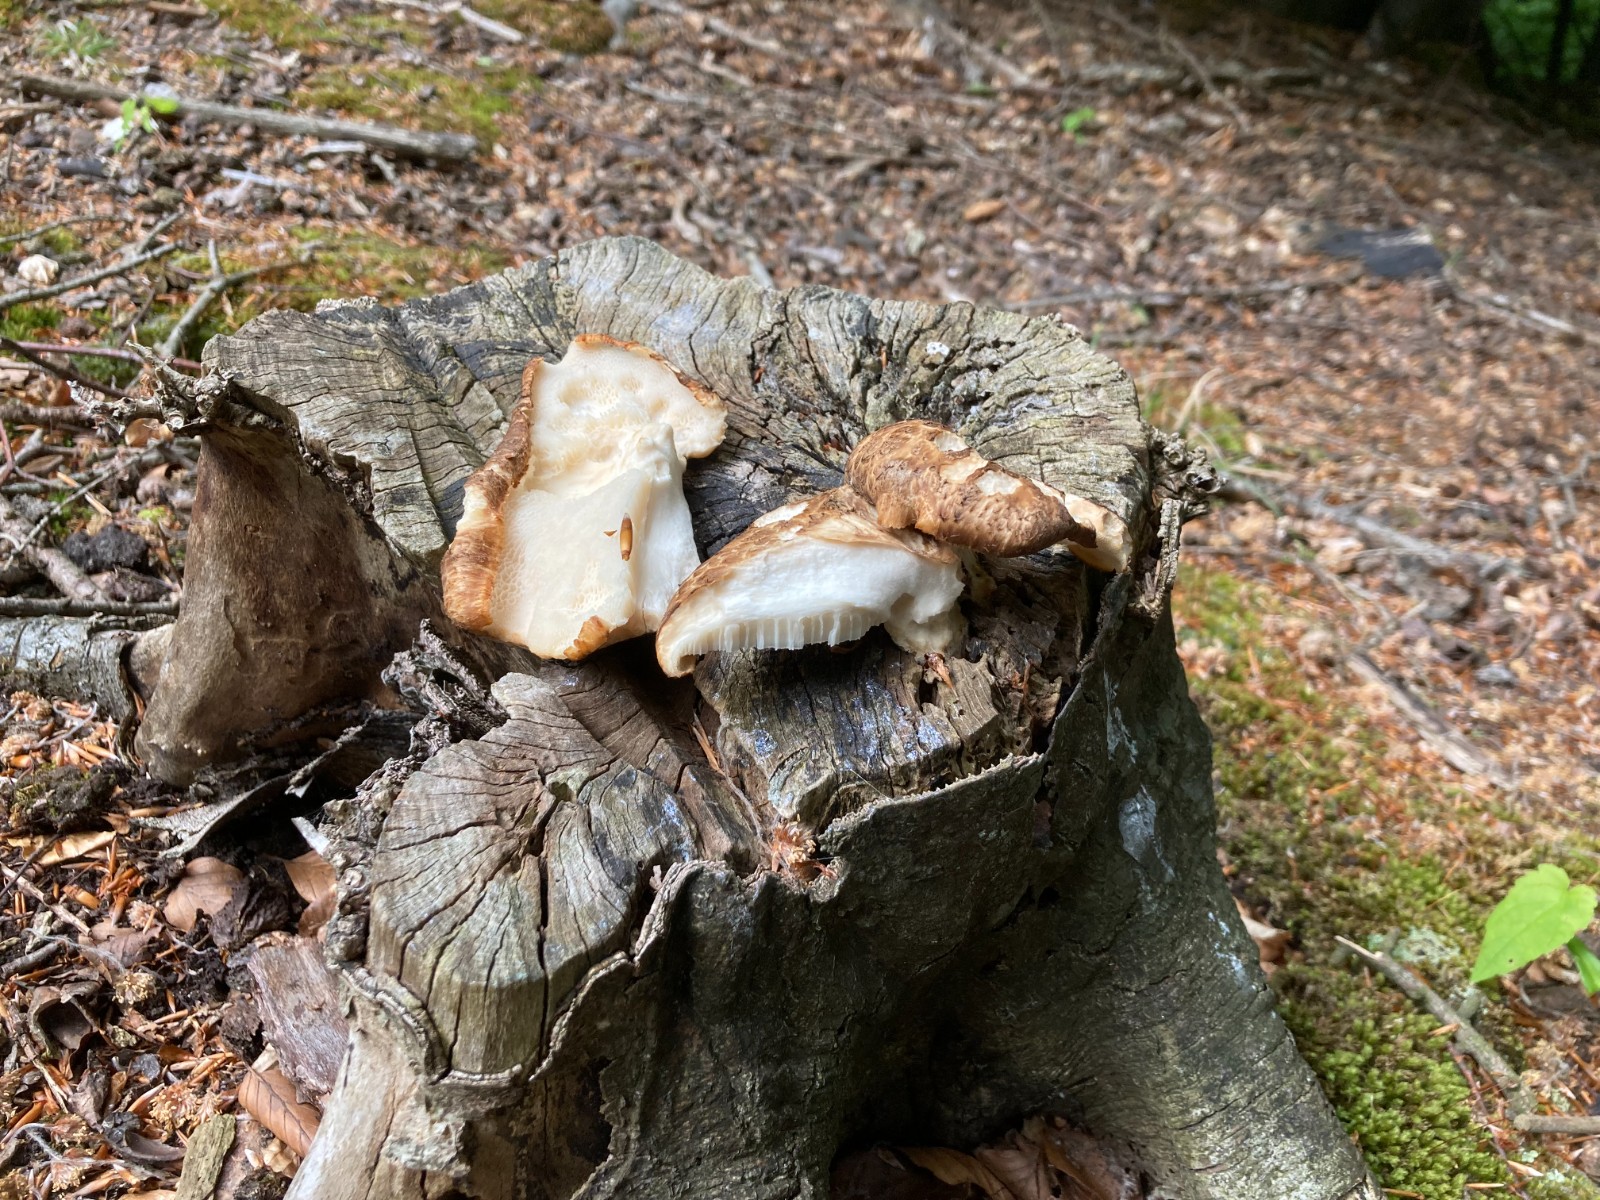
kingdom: Fungi
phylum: Basidiomycota
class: Agaricomycetes
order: Polyporales
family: Polyporaceae
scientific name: Polyporaceae
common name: poresvampfamilien
